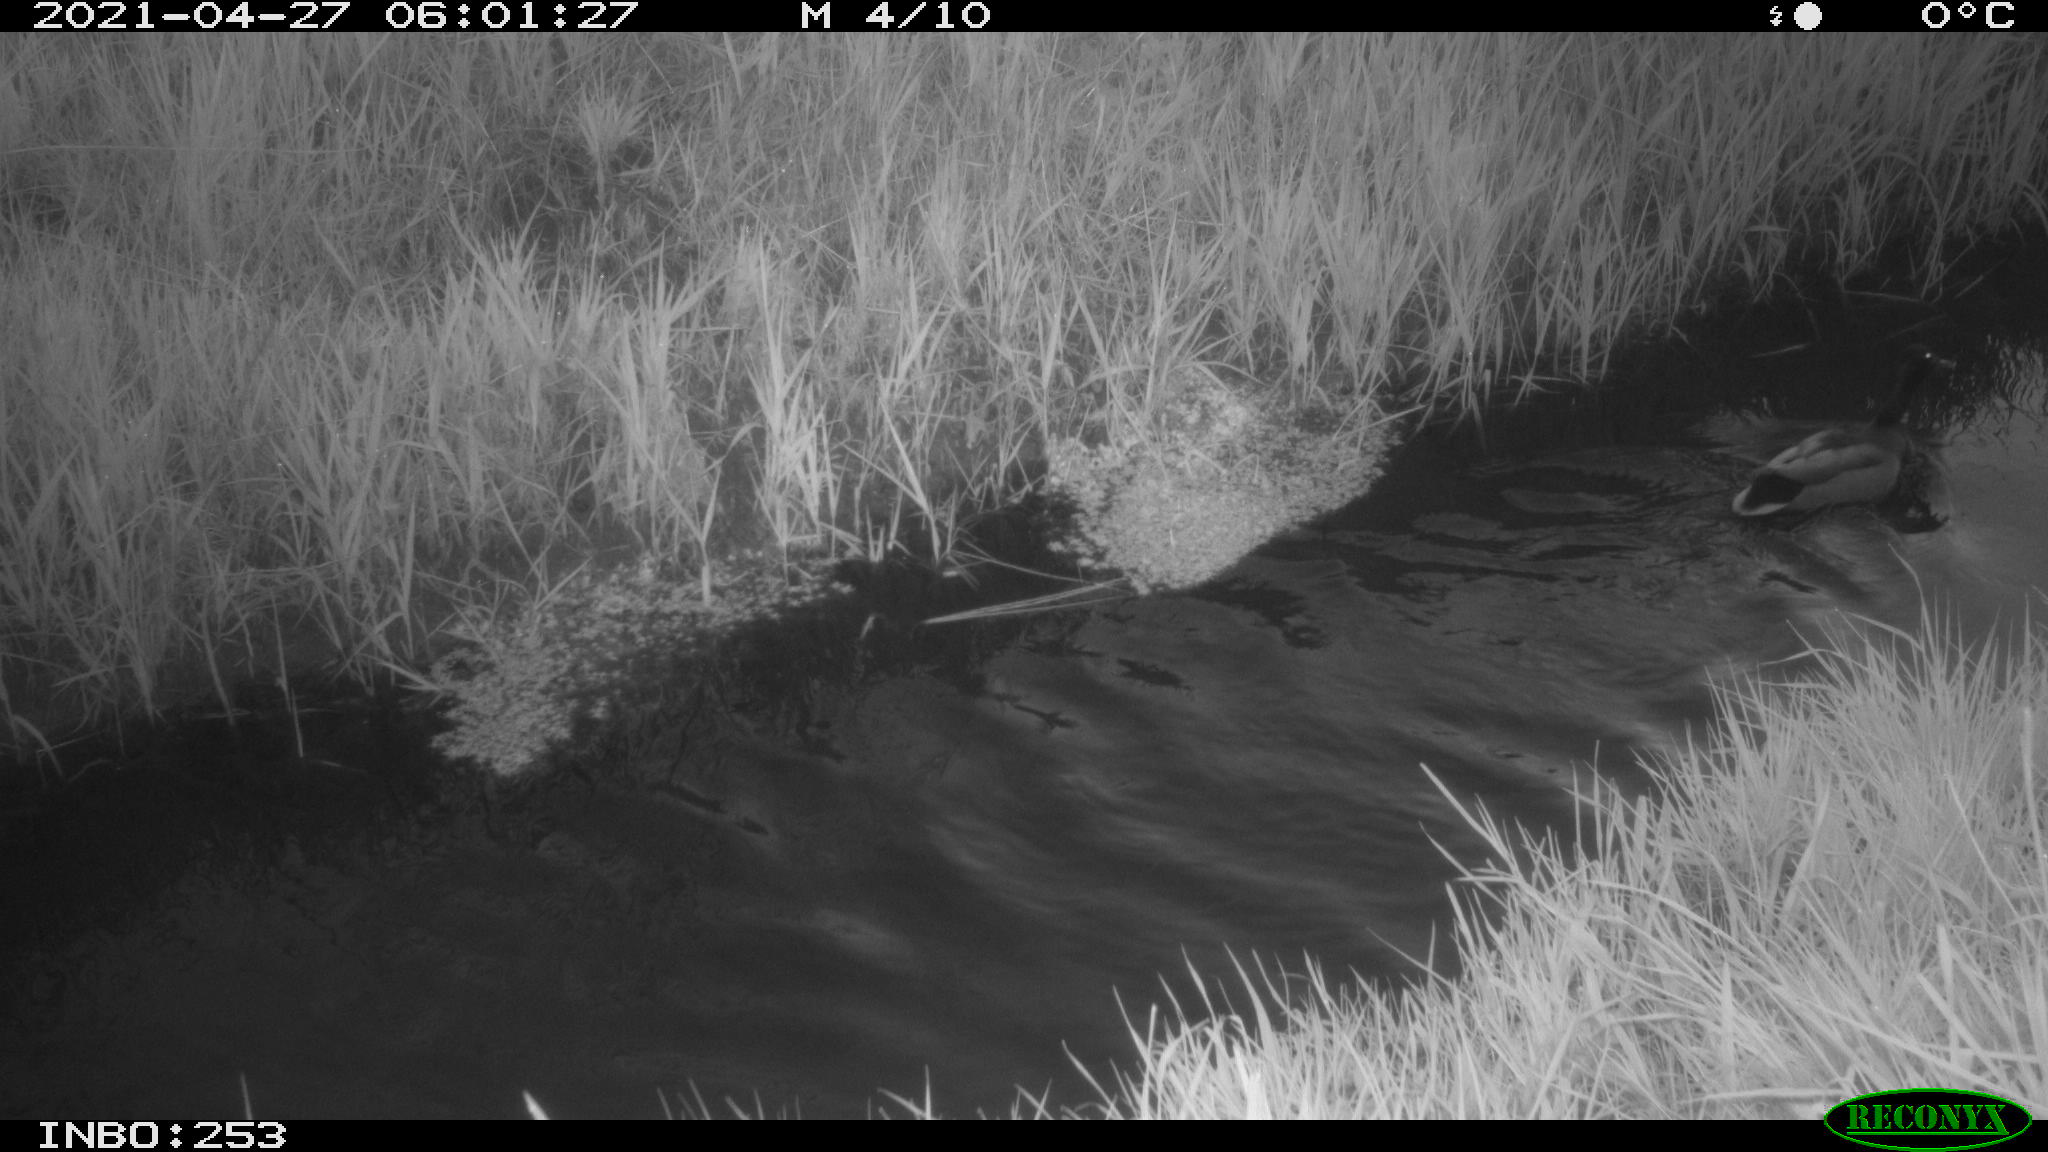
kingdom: Animalia
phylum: Chordata
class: Aves
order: Anseriformes
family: Anatidae
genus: Anas
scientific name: Anas platyrhynchos
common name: Mallard
